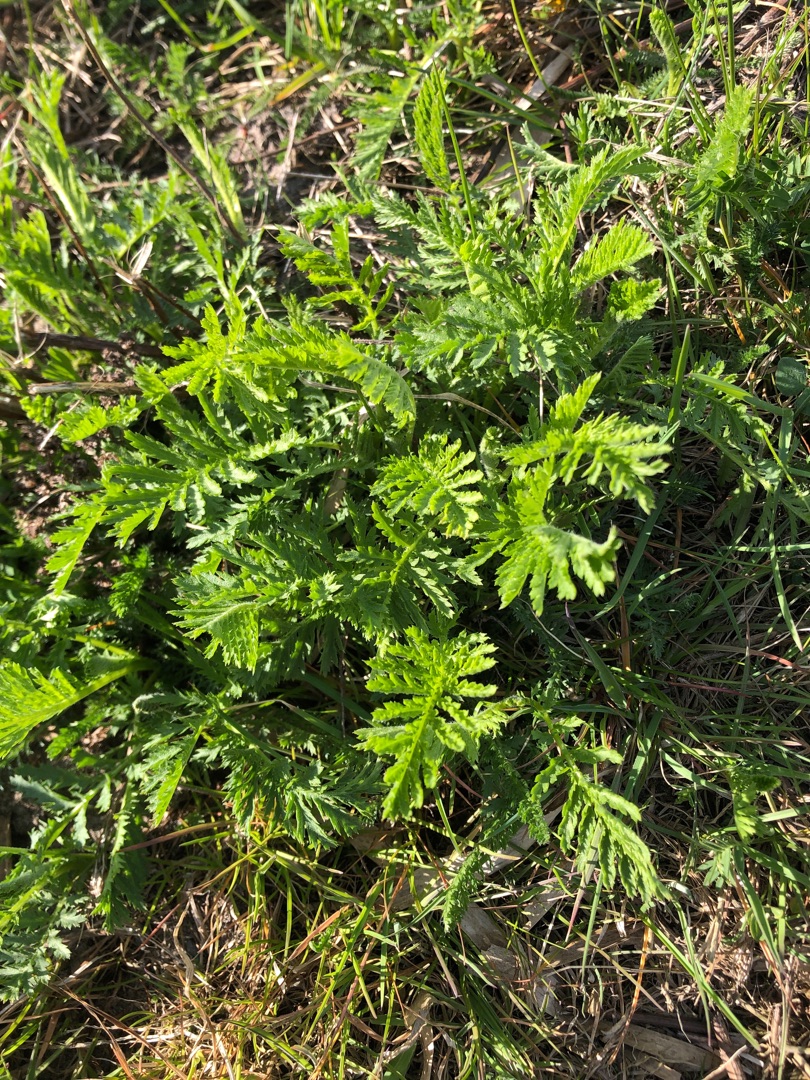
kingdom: Plantae
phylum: Tracheophyta
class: Magnoliopsida
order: Asterales
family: Asteraceae
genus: Tanacetum
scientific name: Tanacetum vulgare
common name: Rejnfan
